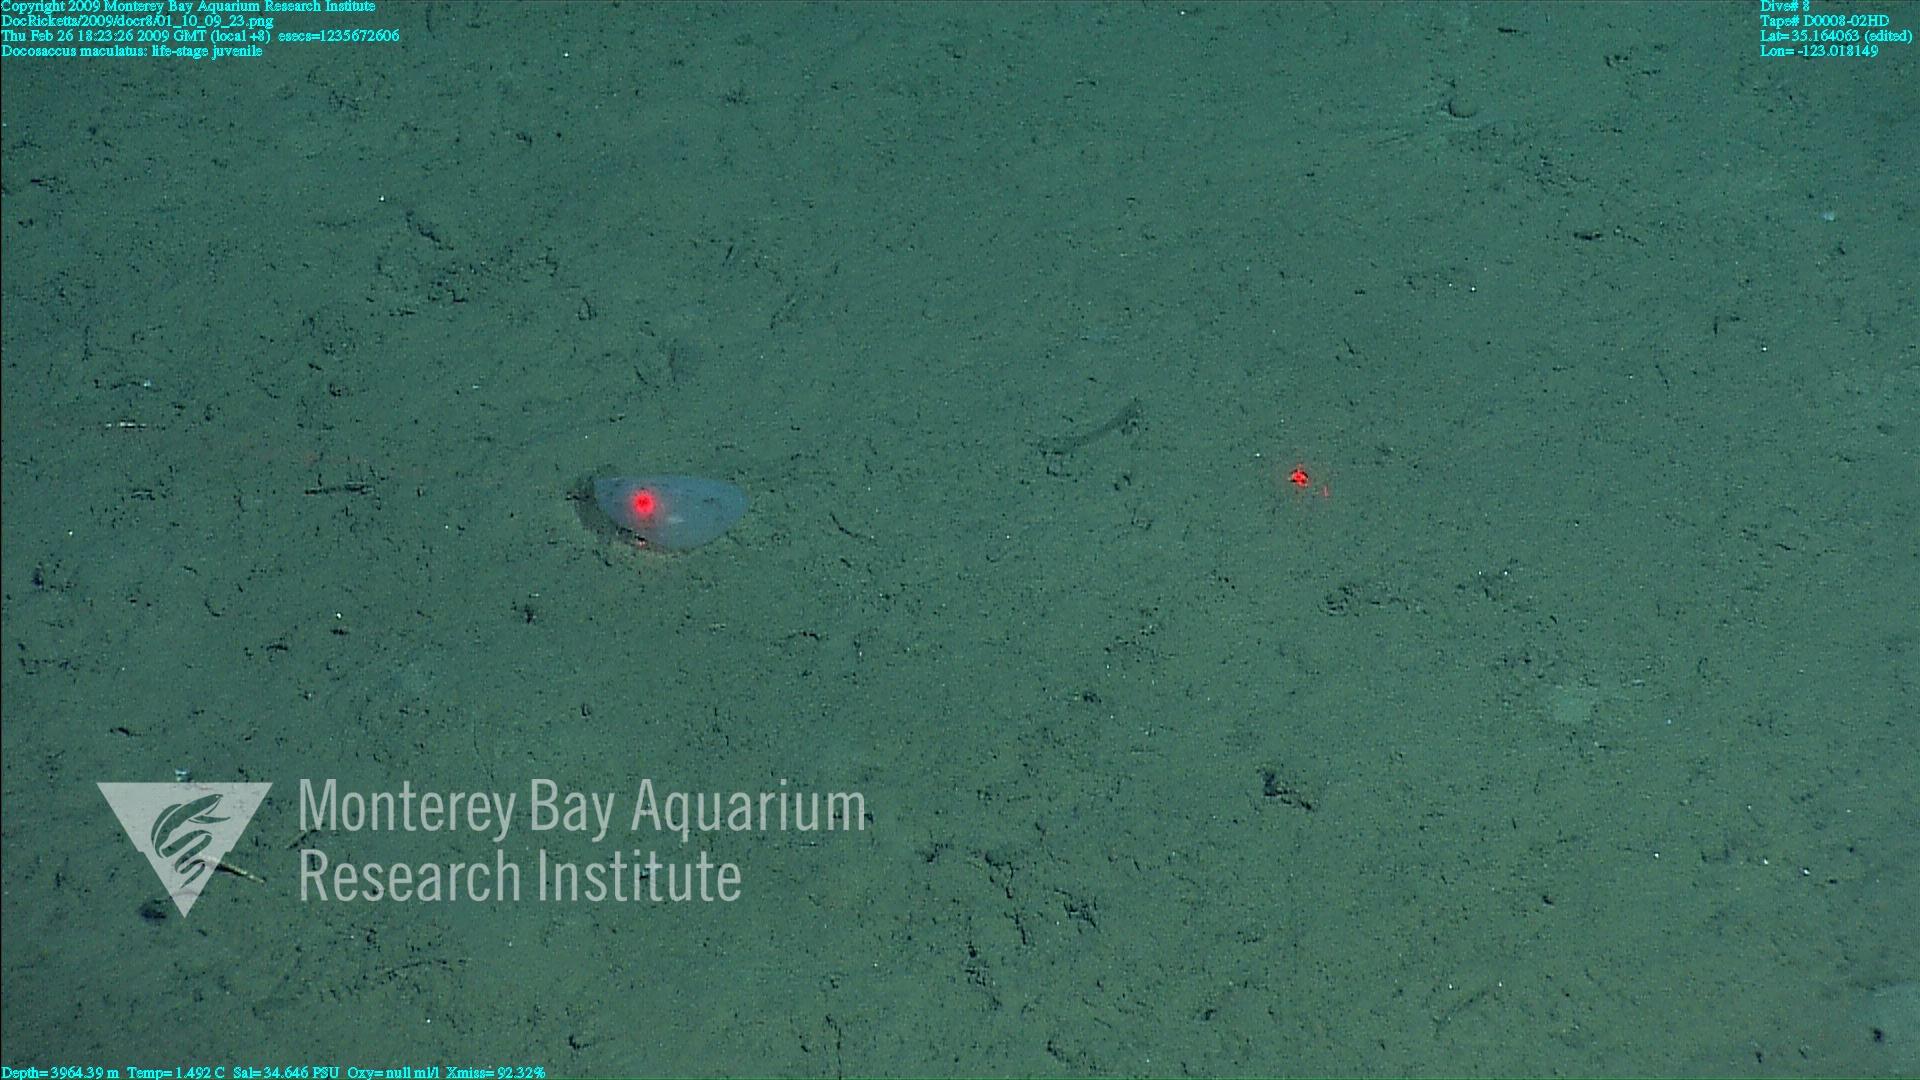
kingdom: Animalia
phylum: Porifera
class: Hexactinellida
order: Lyssacinosida
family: Euplectellidae
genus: Docosaccus
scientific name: Docosaccus maculatus
